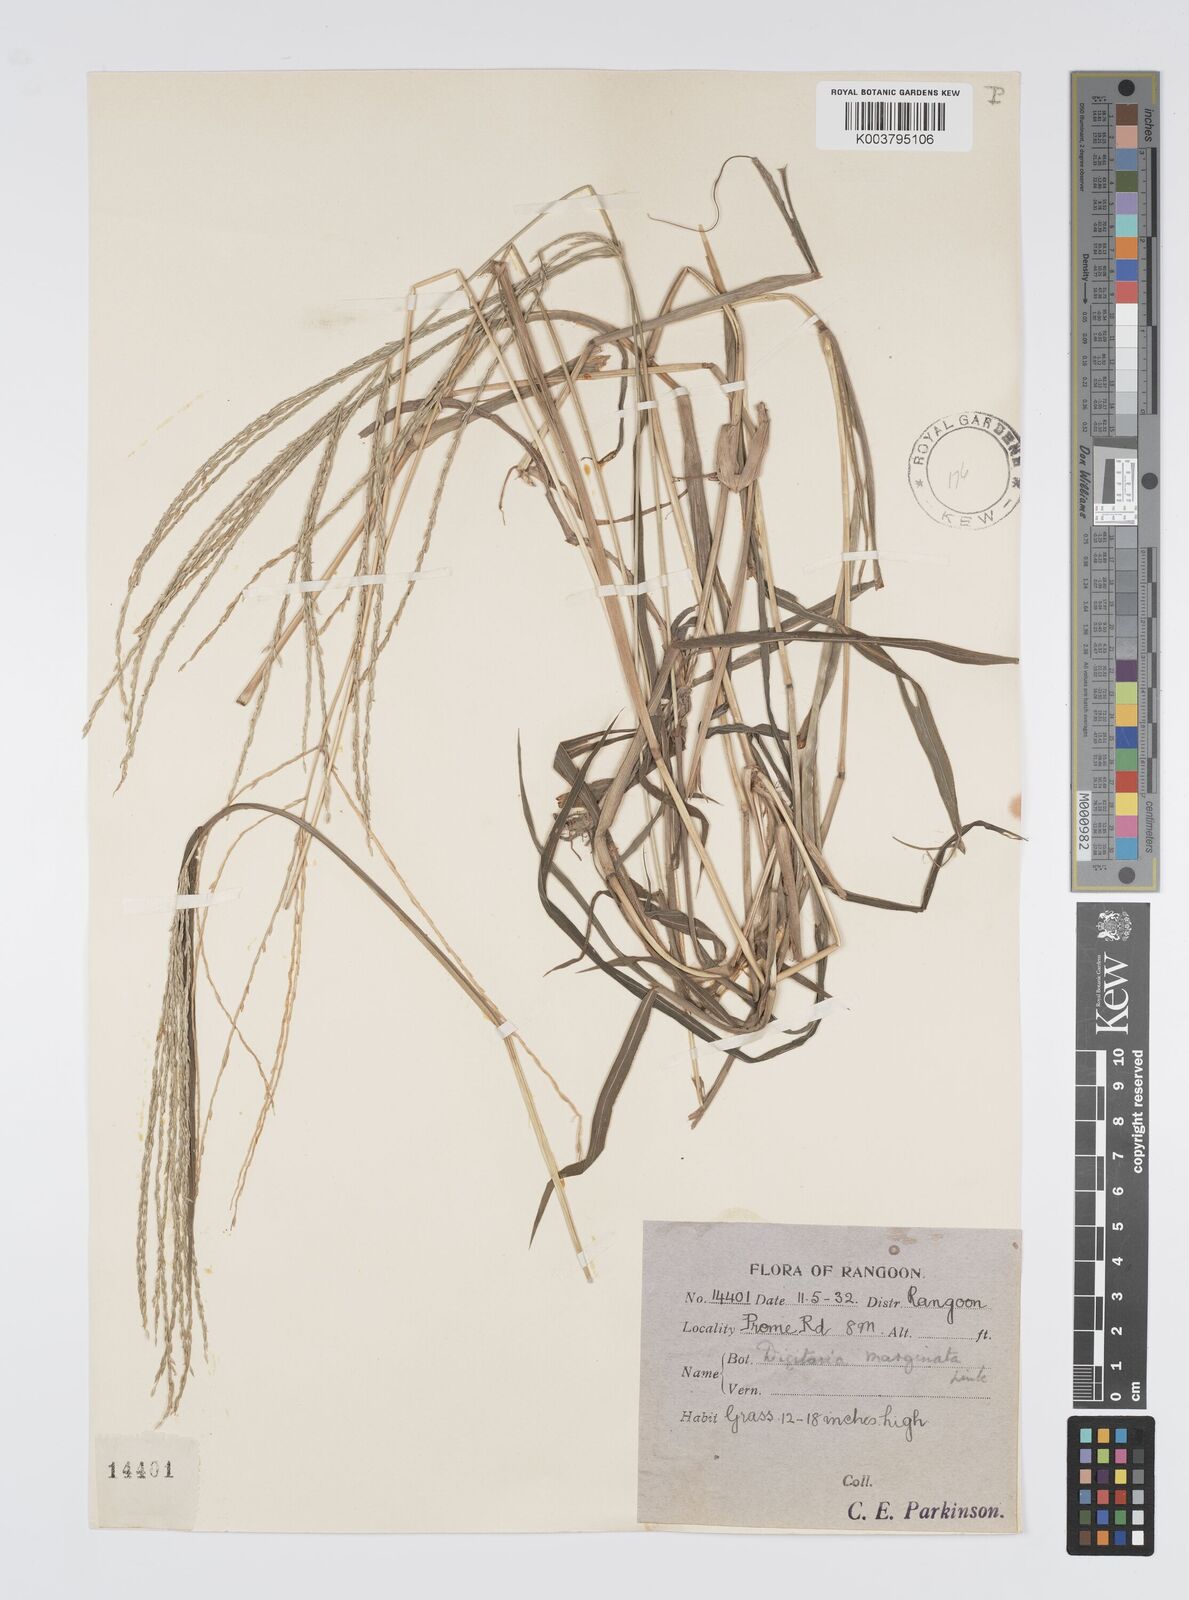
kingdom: Plantae
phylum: Tracheophyta
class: Liliopsida
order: Poales
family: Poaceae
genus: Digitaria
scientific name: Digitaria setigera
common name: East indian crabgrass
